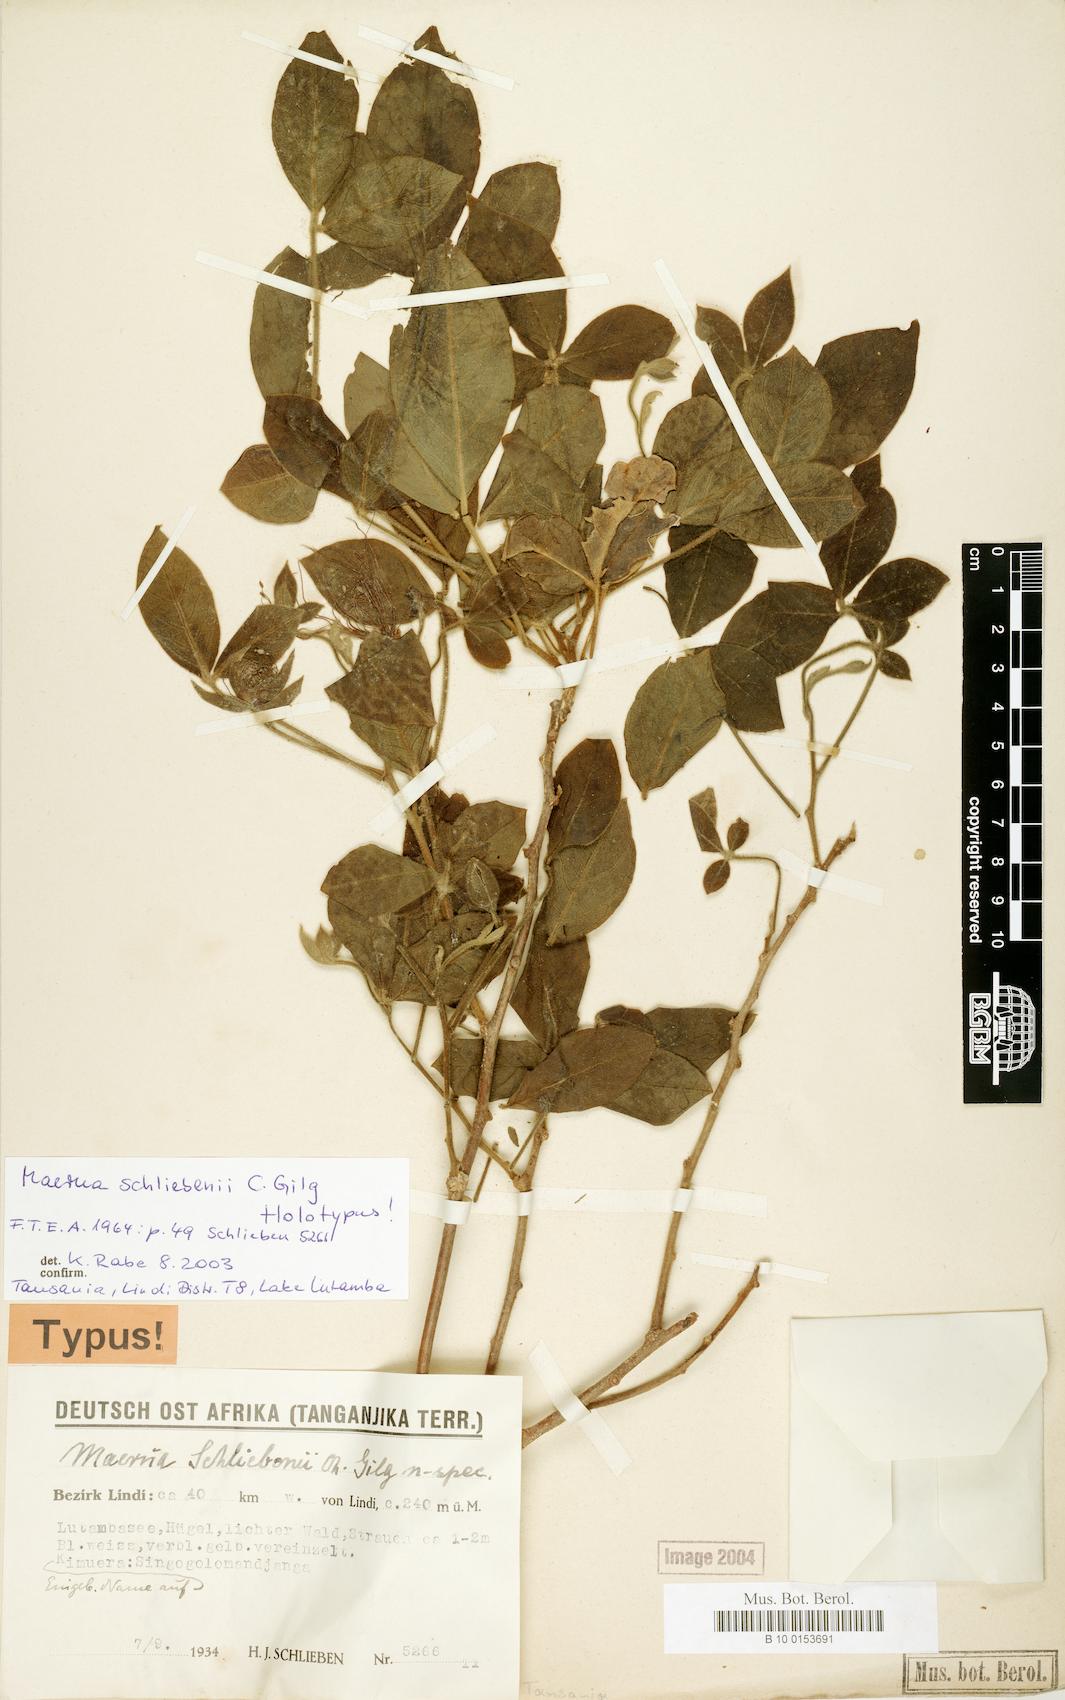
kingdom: Plantae
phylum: Tracheophyta
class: Magnoliopsida
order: Brassicales
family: Capparaceae
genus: Maerua
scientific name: Maerua schliebenii
